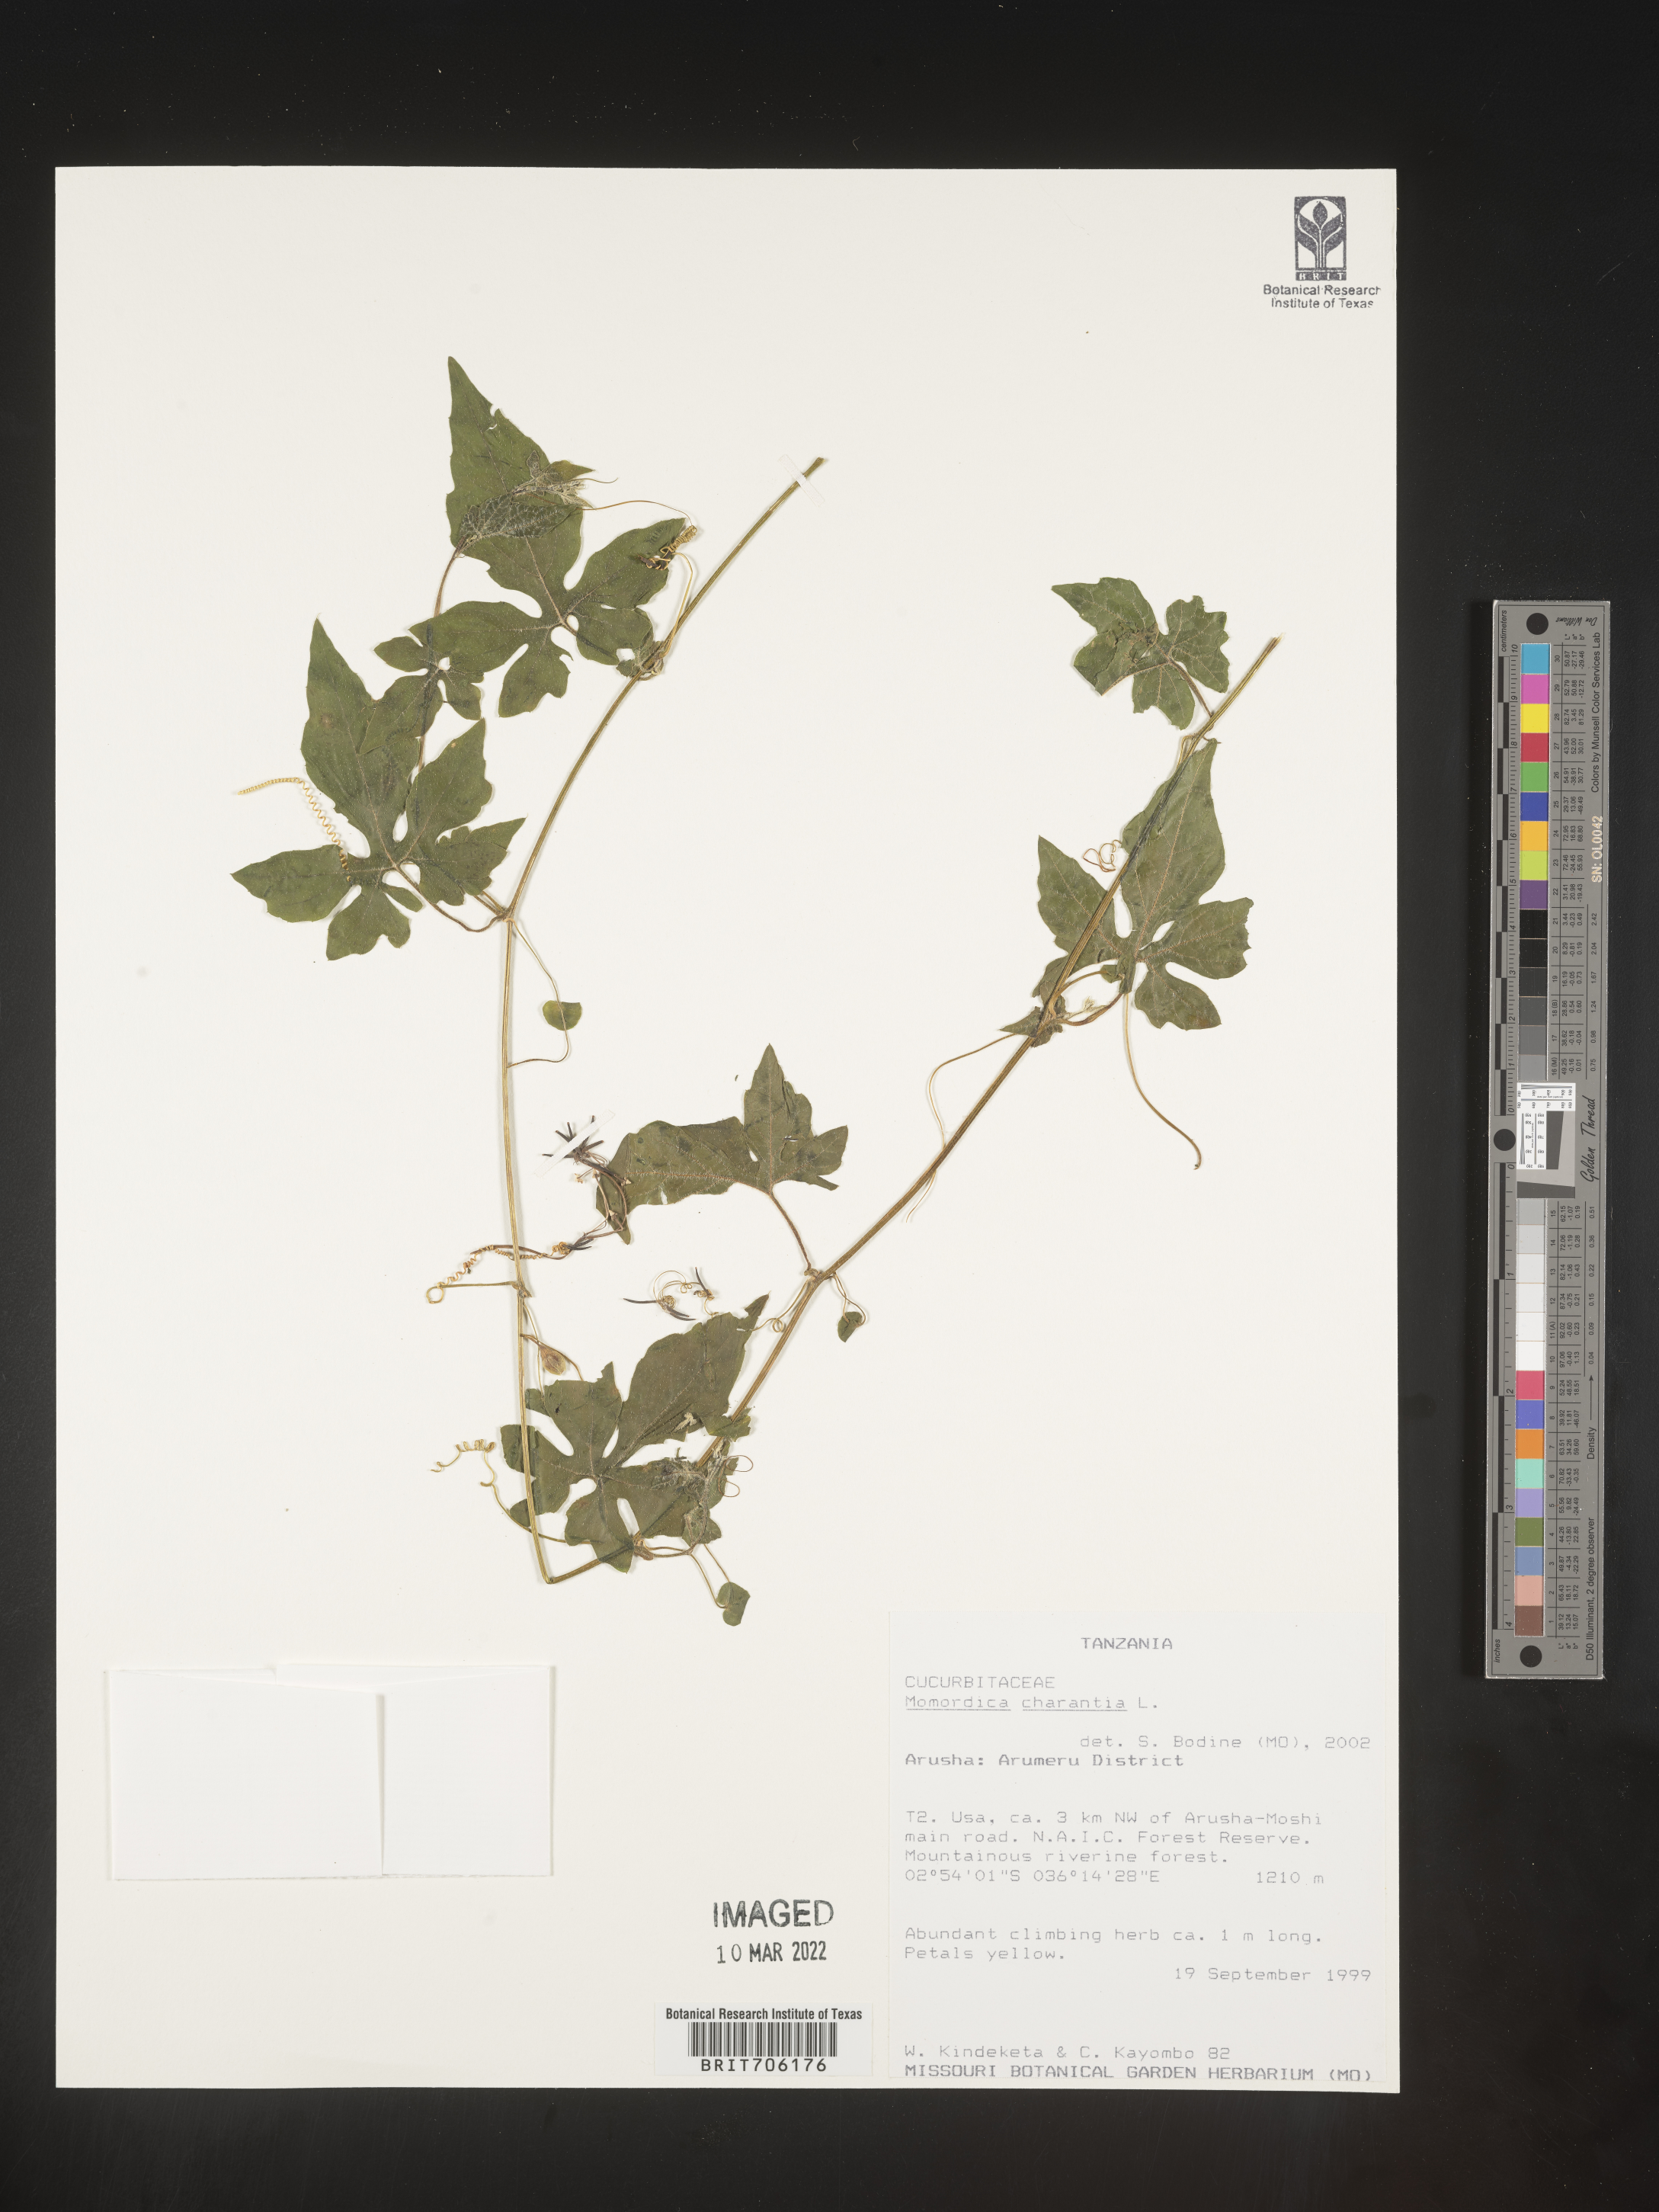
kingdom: Plantae
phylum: Tracheophyta
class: Magnoliopsida
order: Cucurbitales
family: Cucurbitaceae
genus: Momordica
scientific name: Momordica
